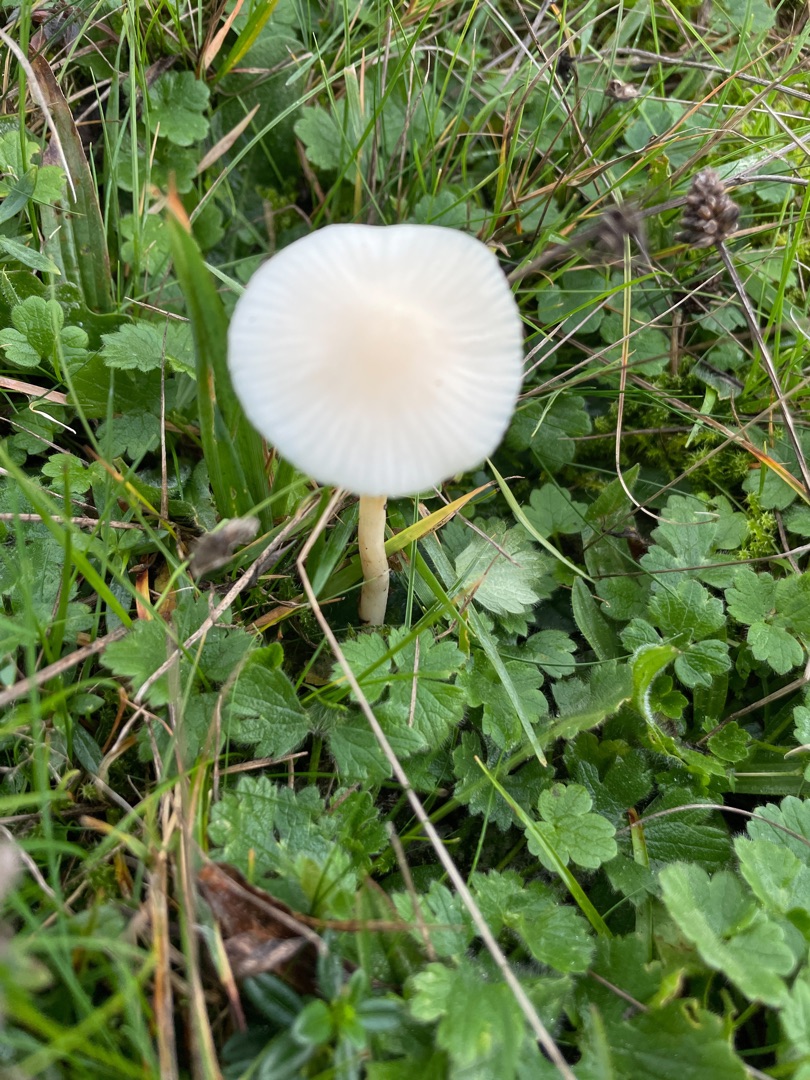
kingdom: Fungi
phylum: Basidiomycota
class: Agaricomycetes
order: Agaricales
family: Hygrophoraceae
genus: Cuphophyllus
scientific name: Cuphophyllus virgineus
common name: Snehvid vokshat
